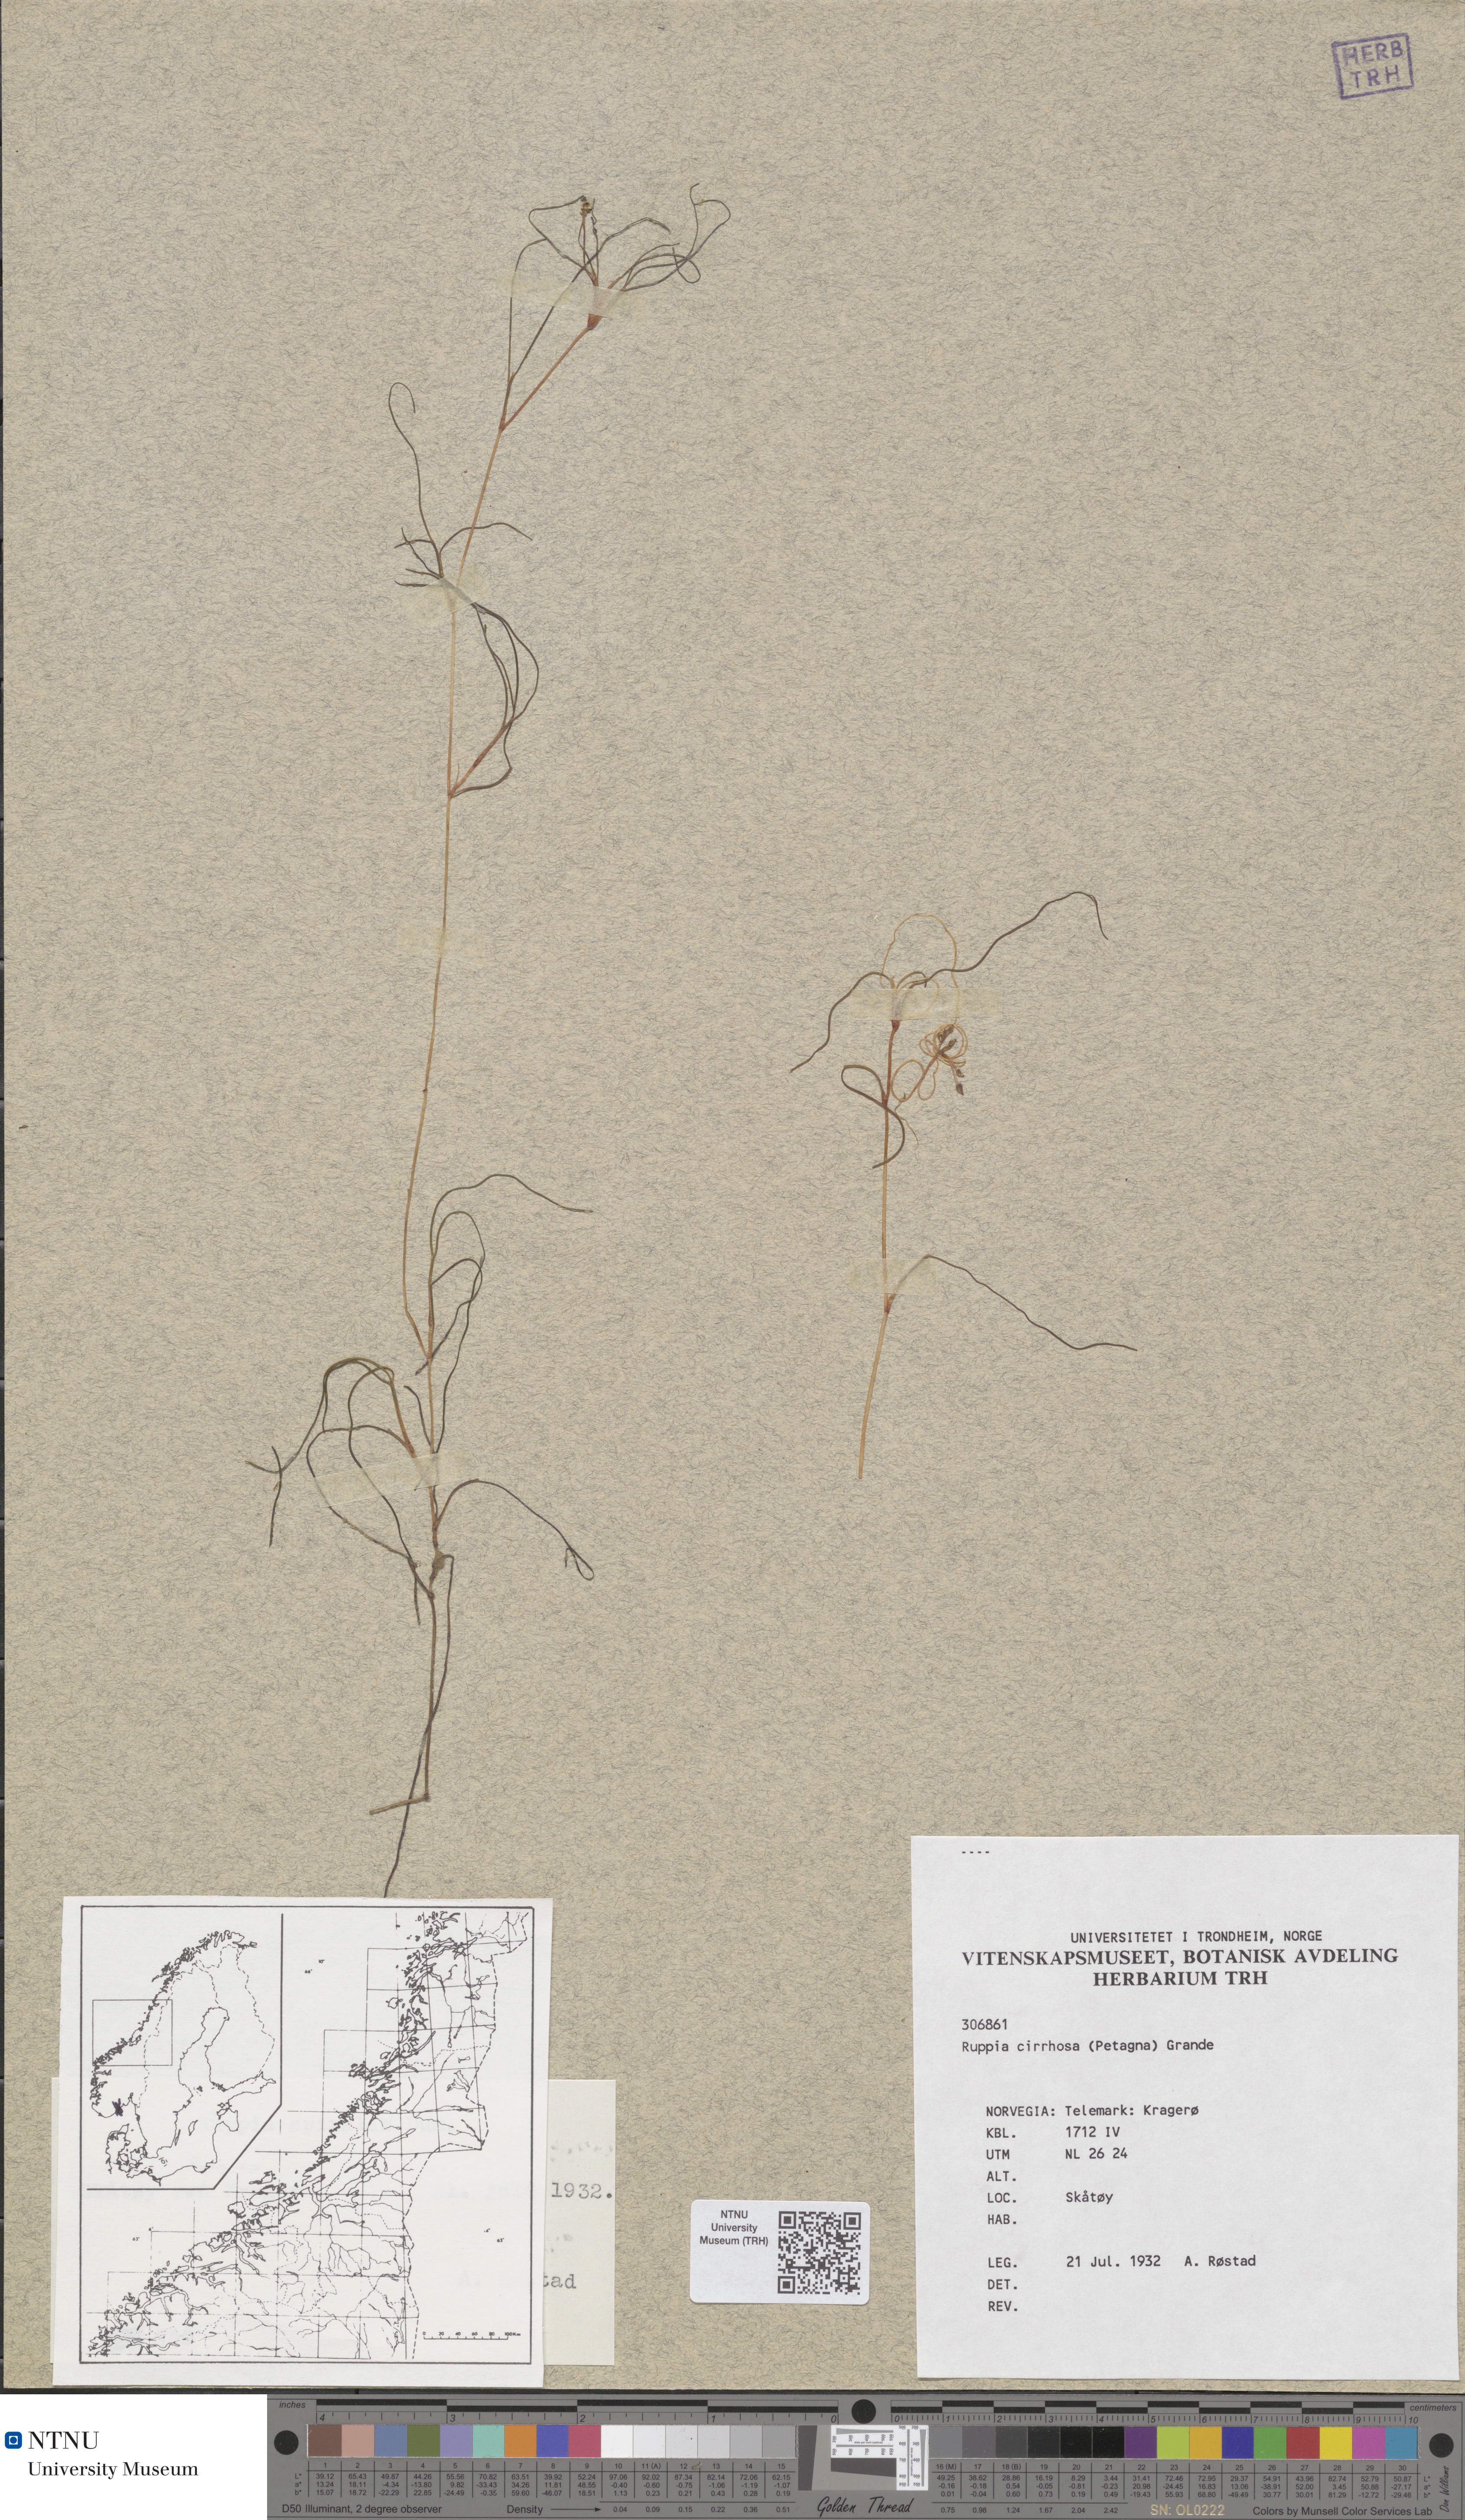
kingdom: Plantae
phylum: Tracheophyta
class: Liliopsida
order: Alismatales
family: Ruppiaceae
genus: Ruppia
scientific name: Ruppia cirrhosa
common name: Spiral tasselweed
